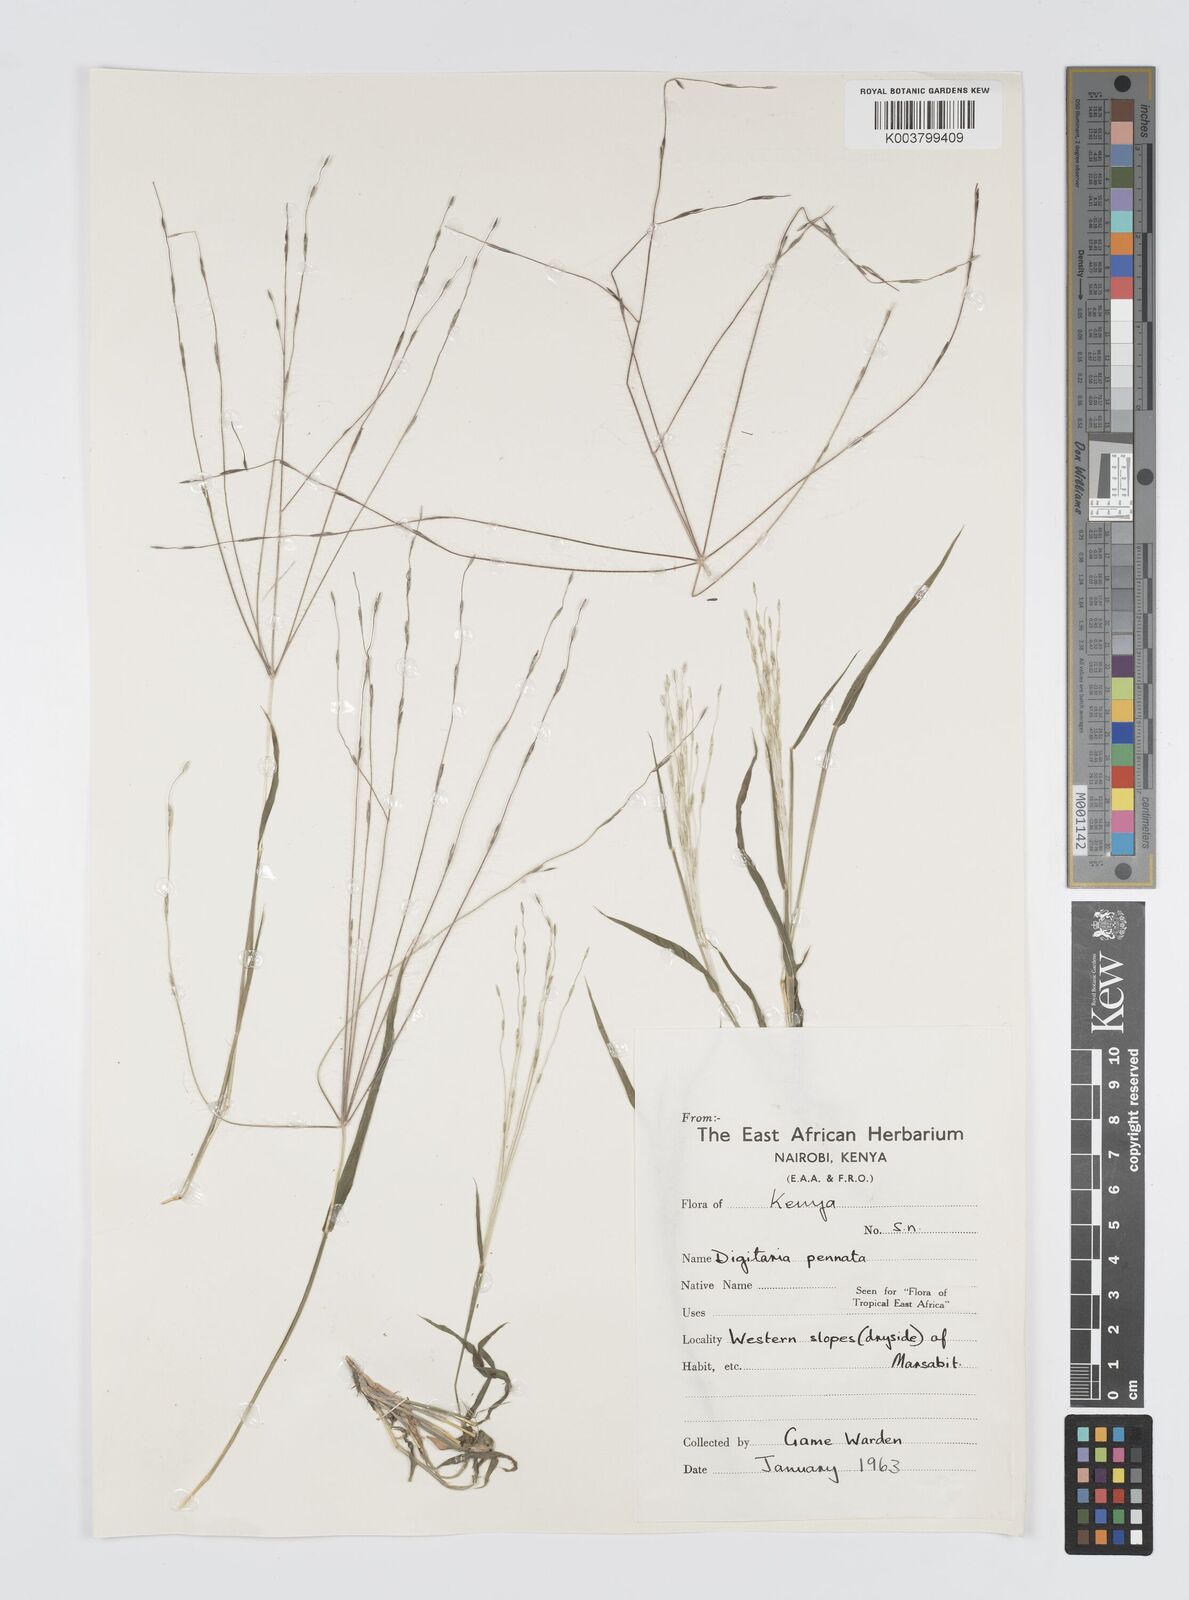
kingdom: Plantae
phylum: Tracheophyta
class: Liliopsida
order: Poales
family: Poaceae
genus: Digitaria
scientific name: Digitaria pennata
